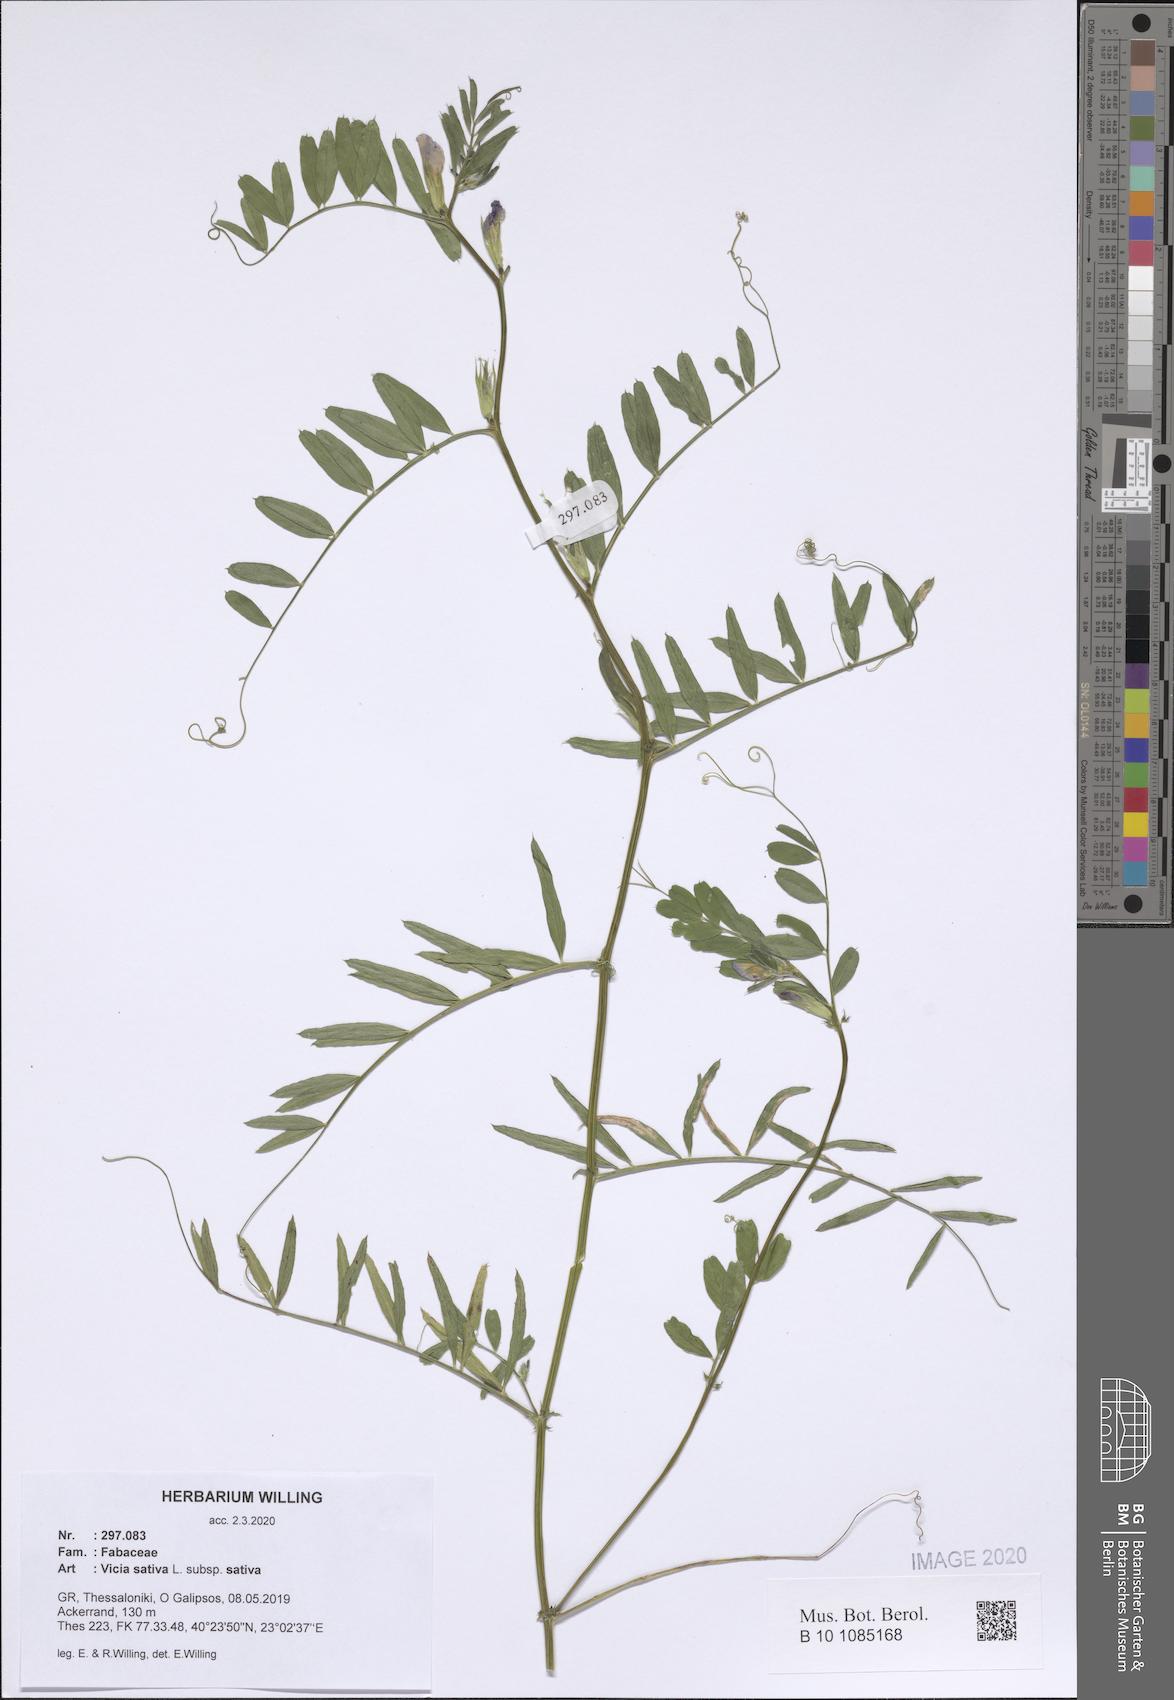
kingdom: Plantae
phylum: Tracheophyta
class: Magnoliopsida
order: Fabales
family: Fabaceae
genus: Vicia
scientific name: Vicia sativa
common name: Garden vetch
